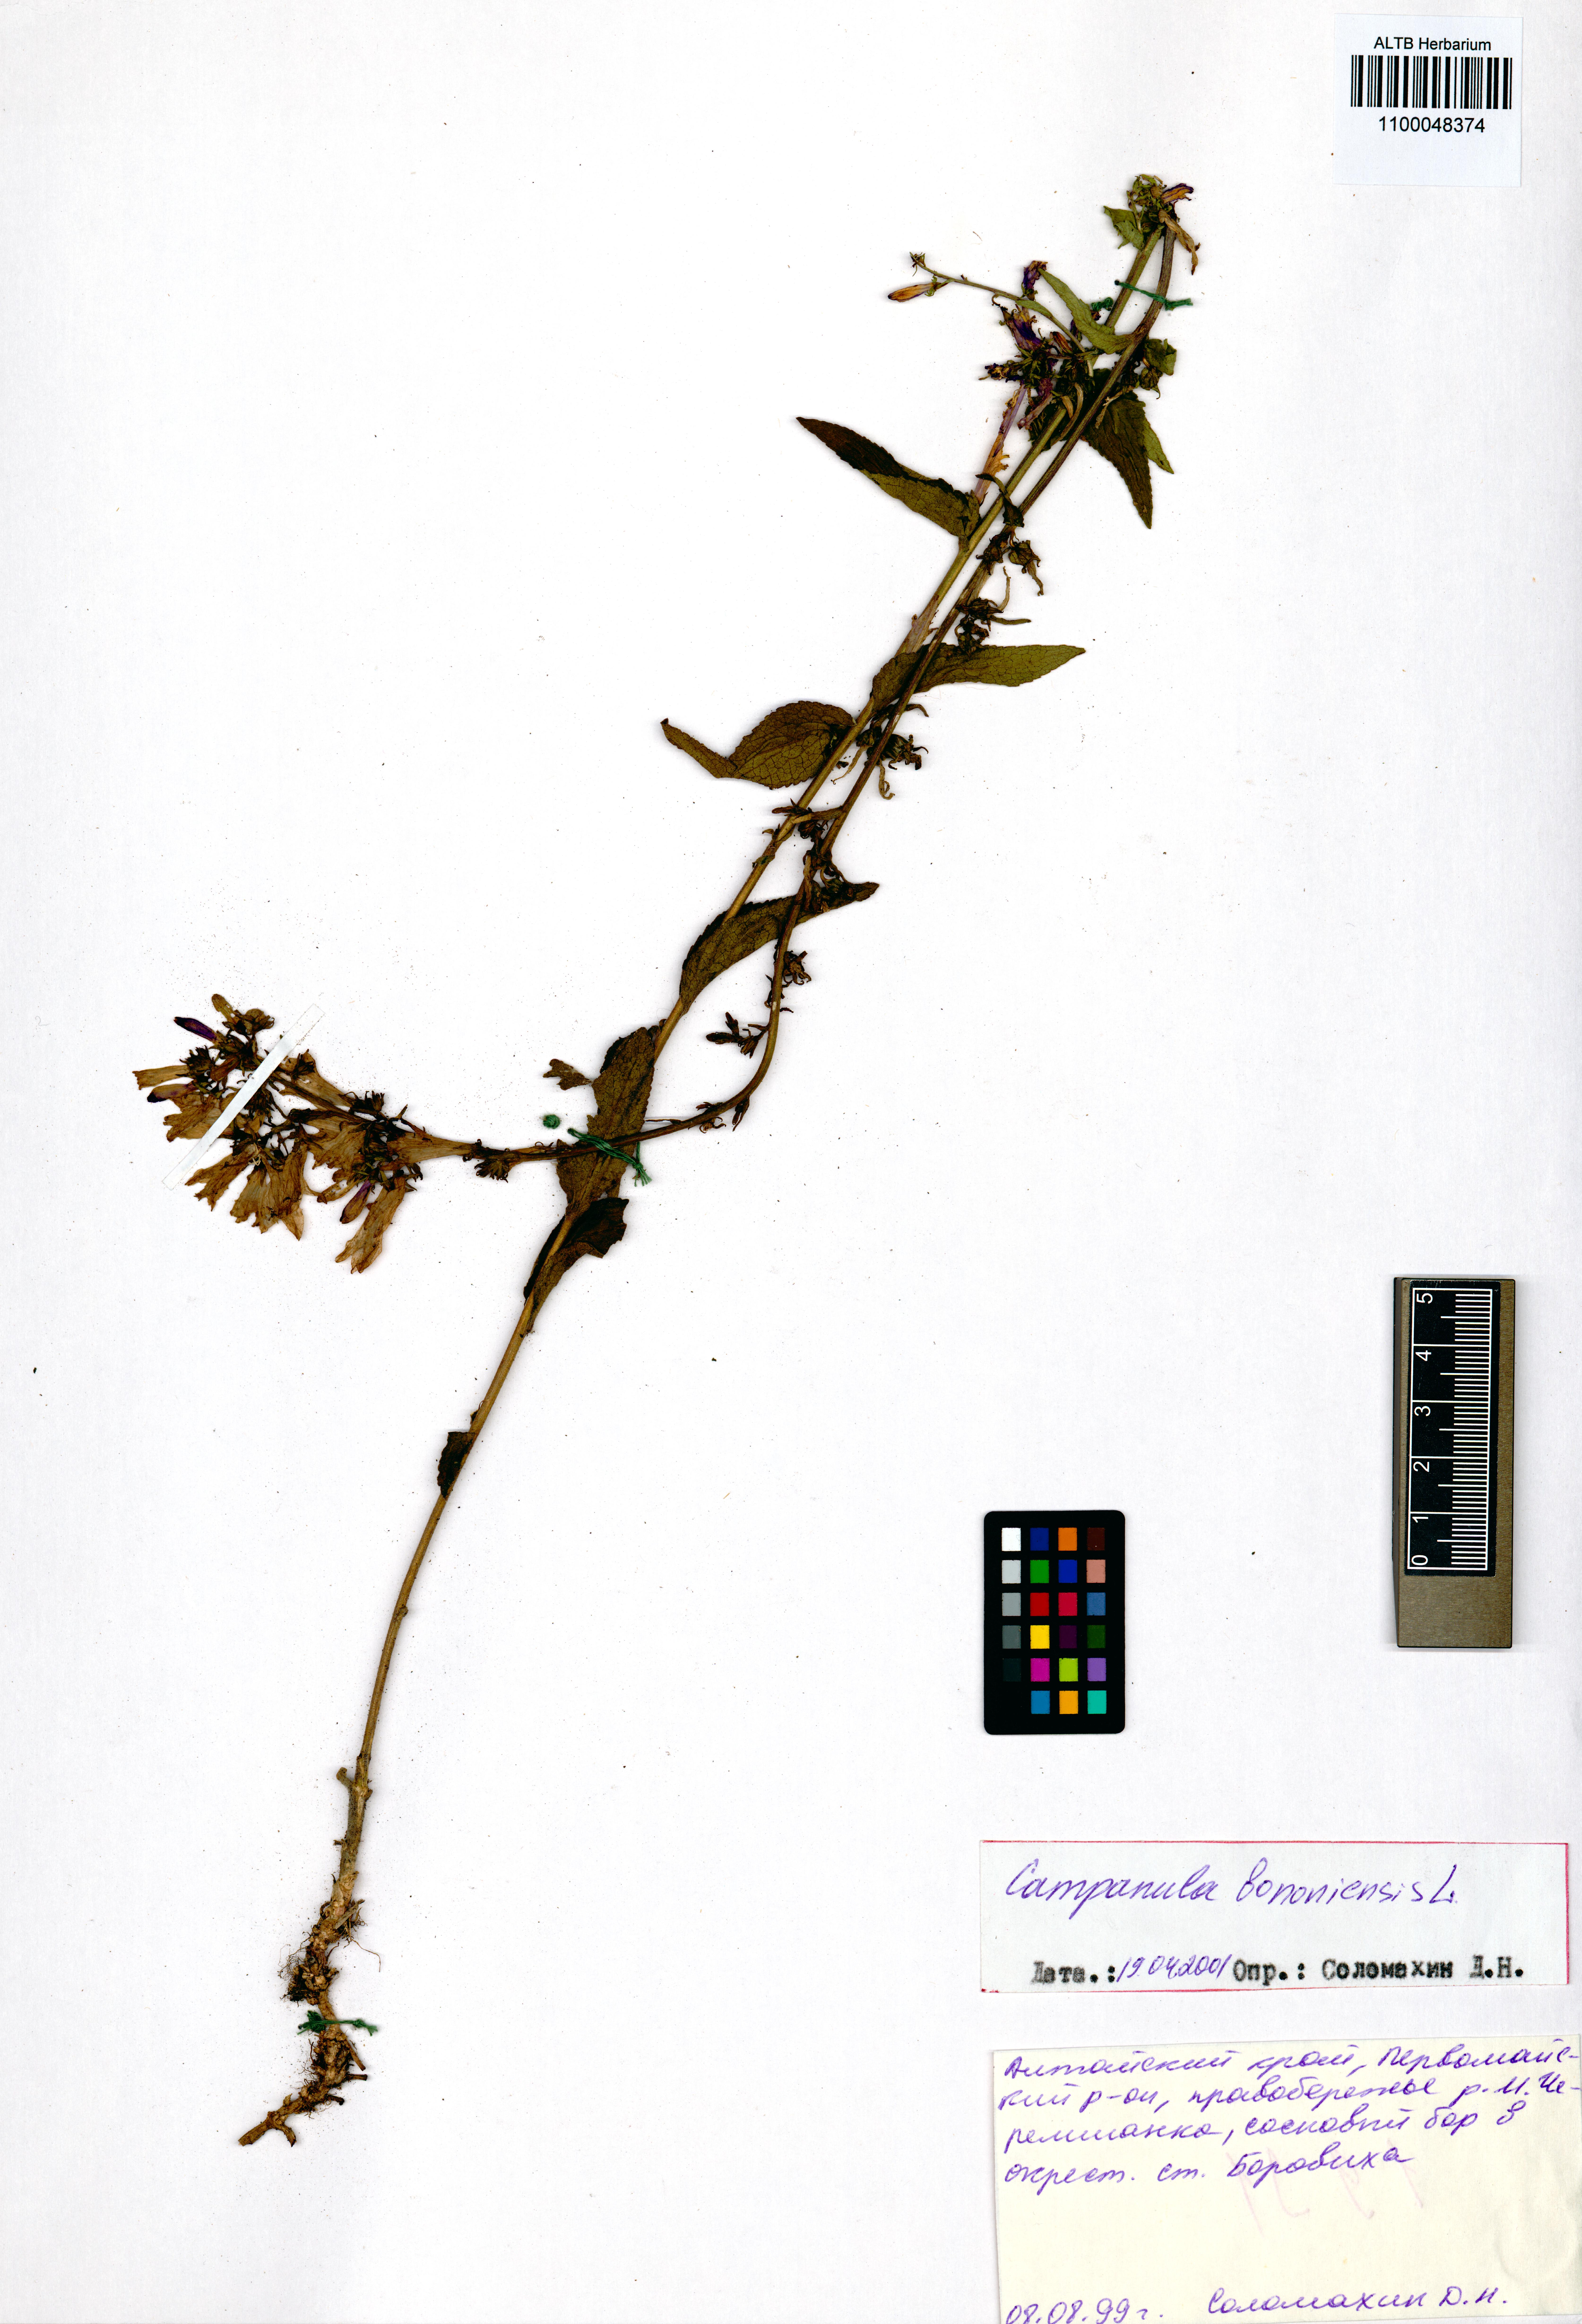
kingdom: Plantae
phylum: Tracheophyta
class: Magnoliopsida
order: Asterales
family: Campanulaceae
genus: Campanula
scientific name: Campanula bononiensis
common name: Pale bellflower
